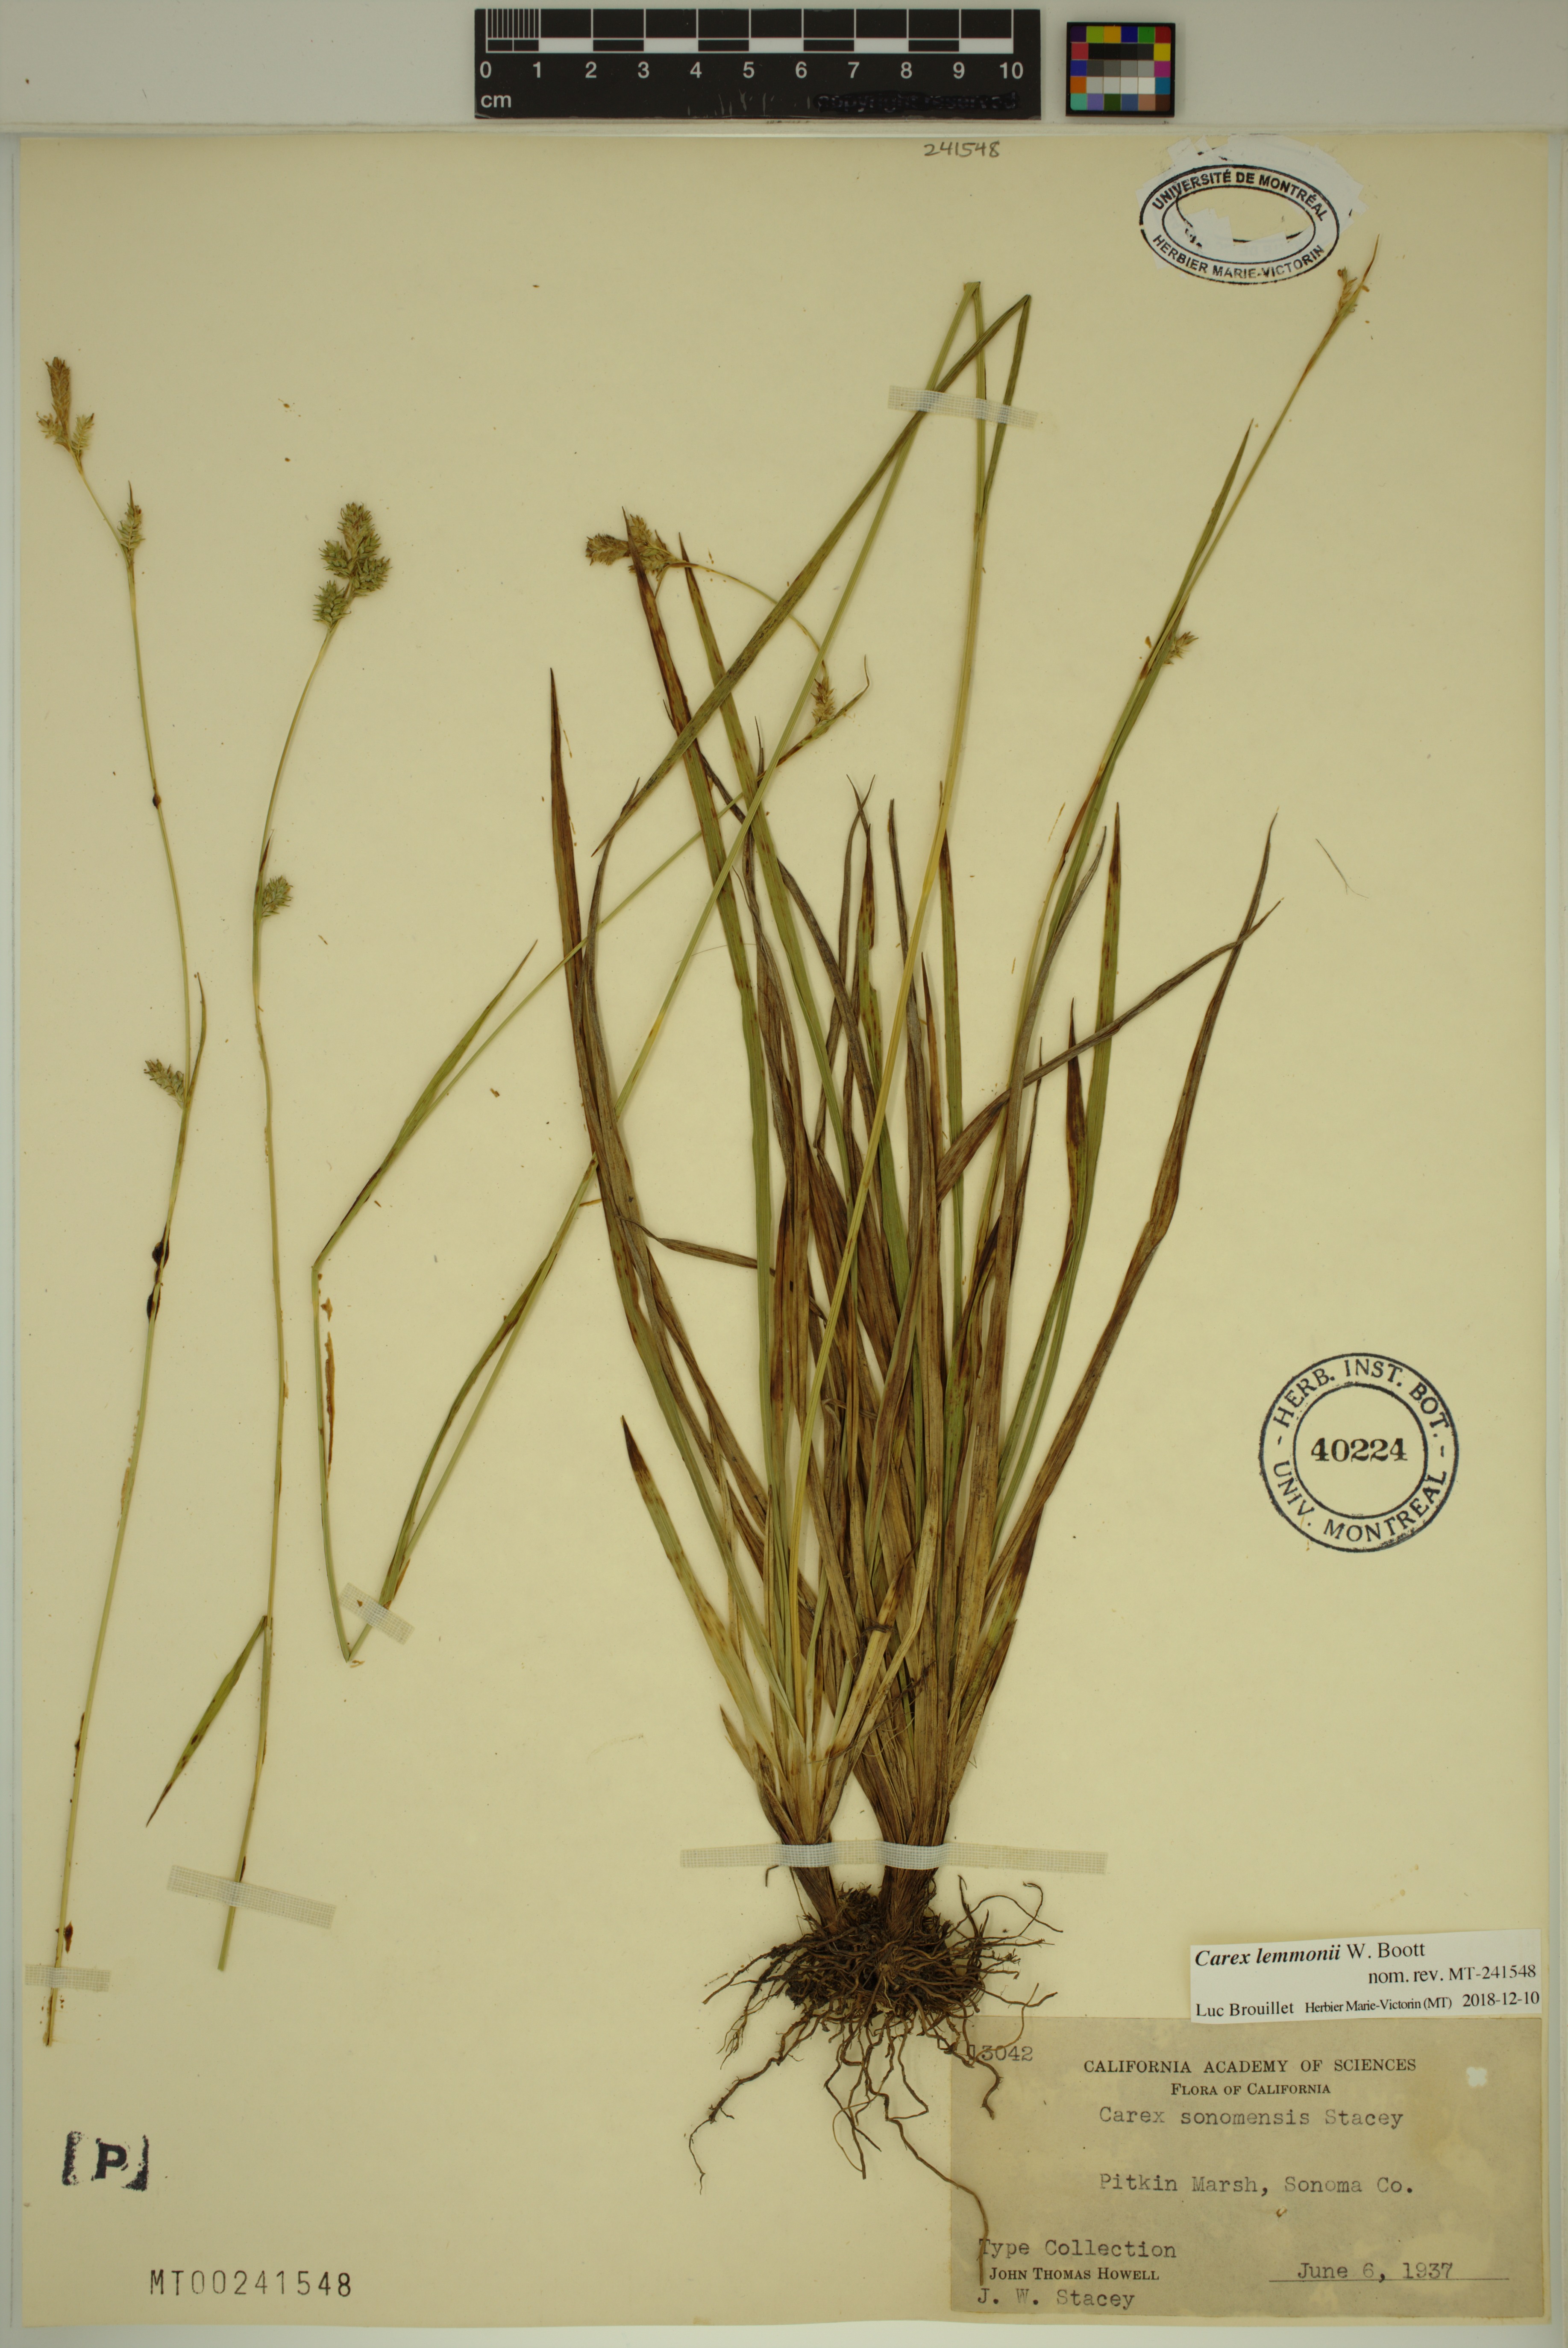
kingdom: Plantae
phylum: Tracheophyta
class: Liliopsida
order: Poales
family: Cyperaceae
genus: Carex
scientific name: Carex lemmonii
